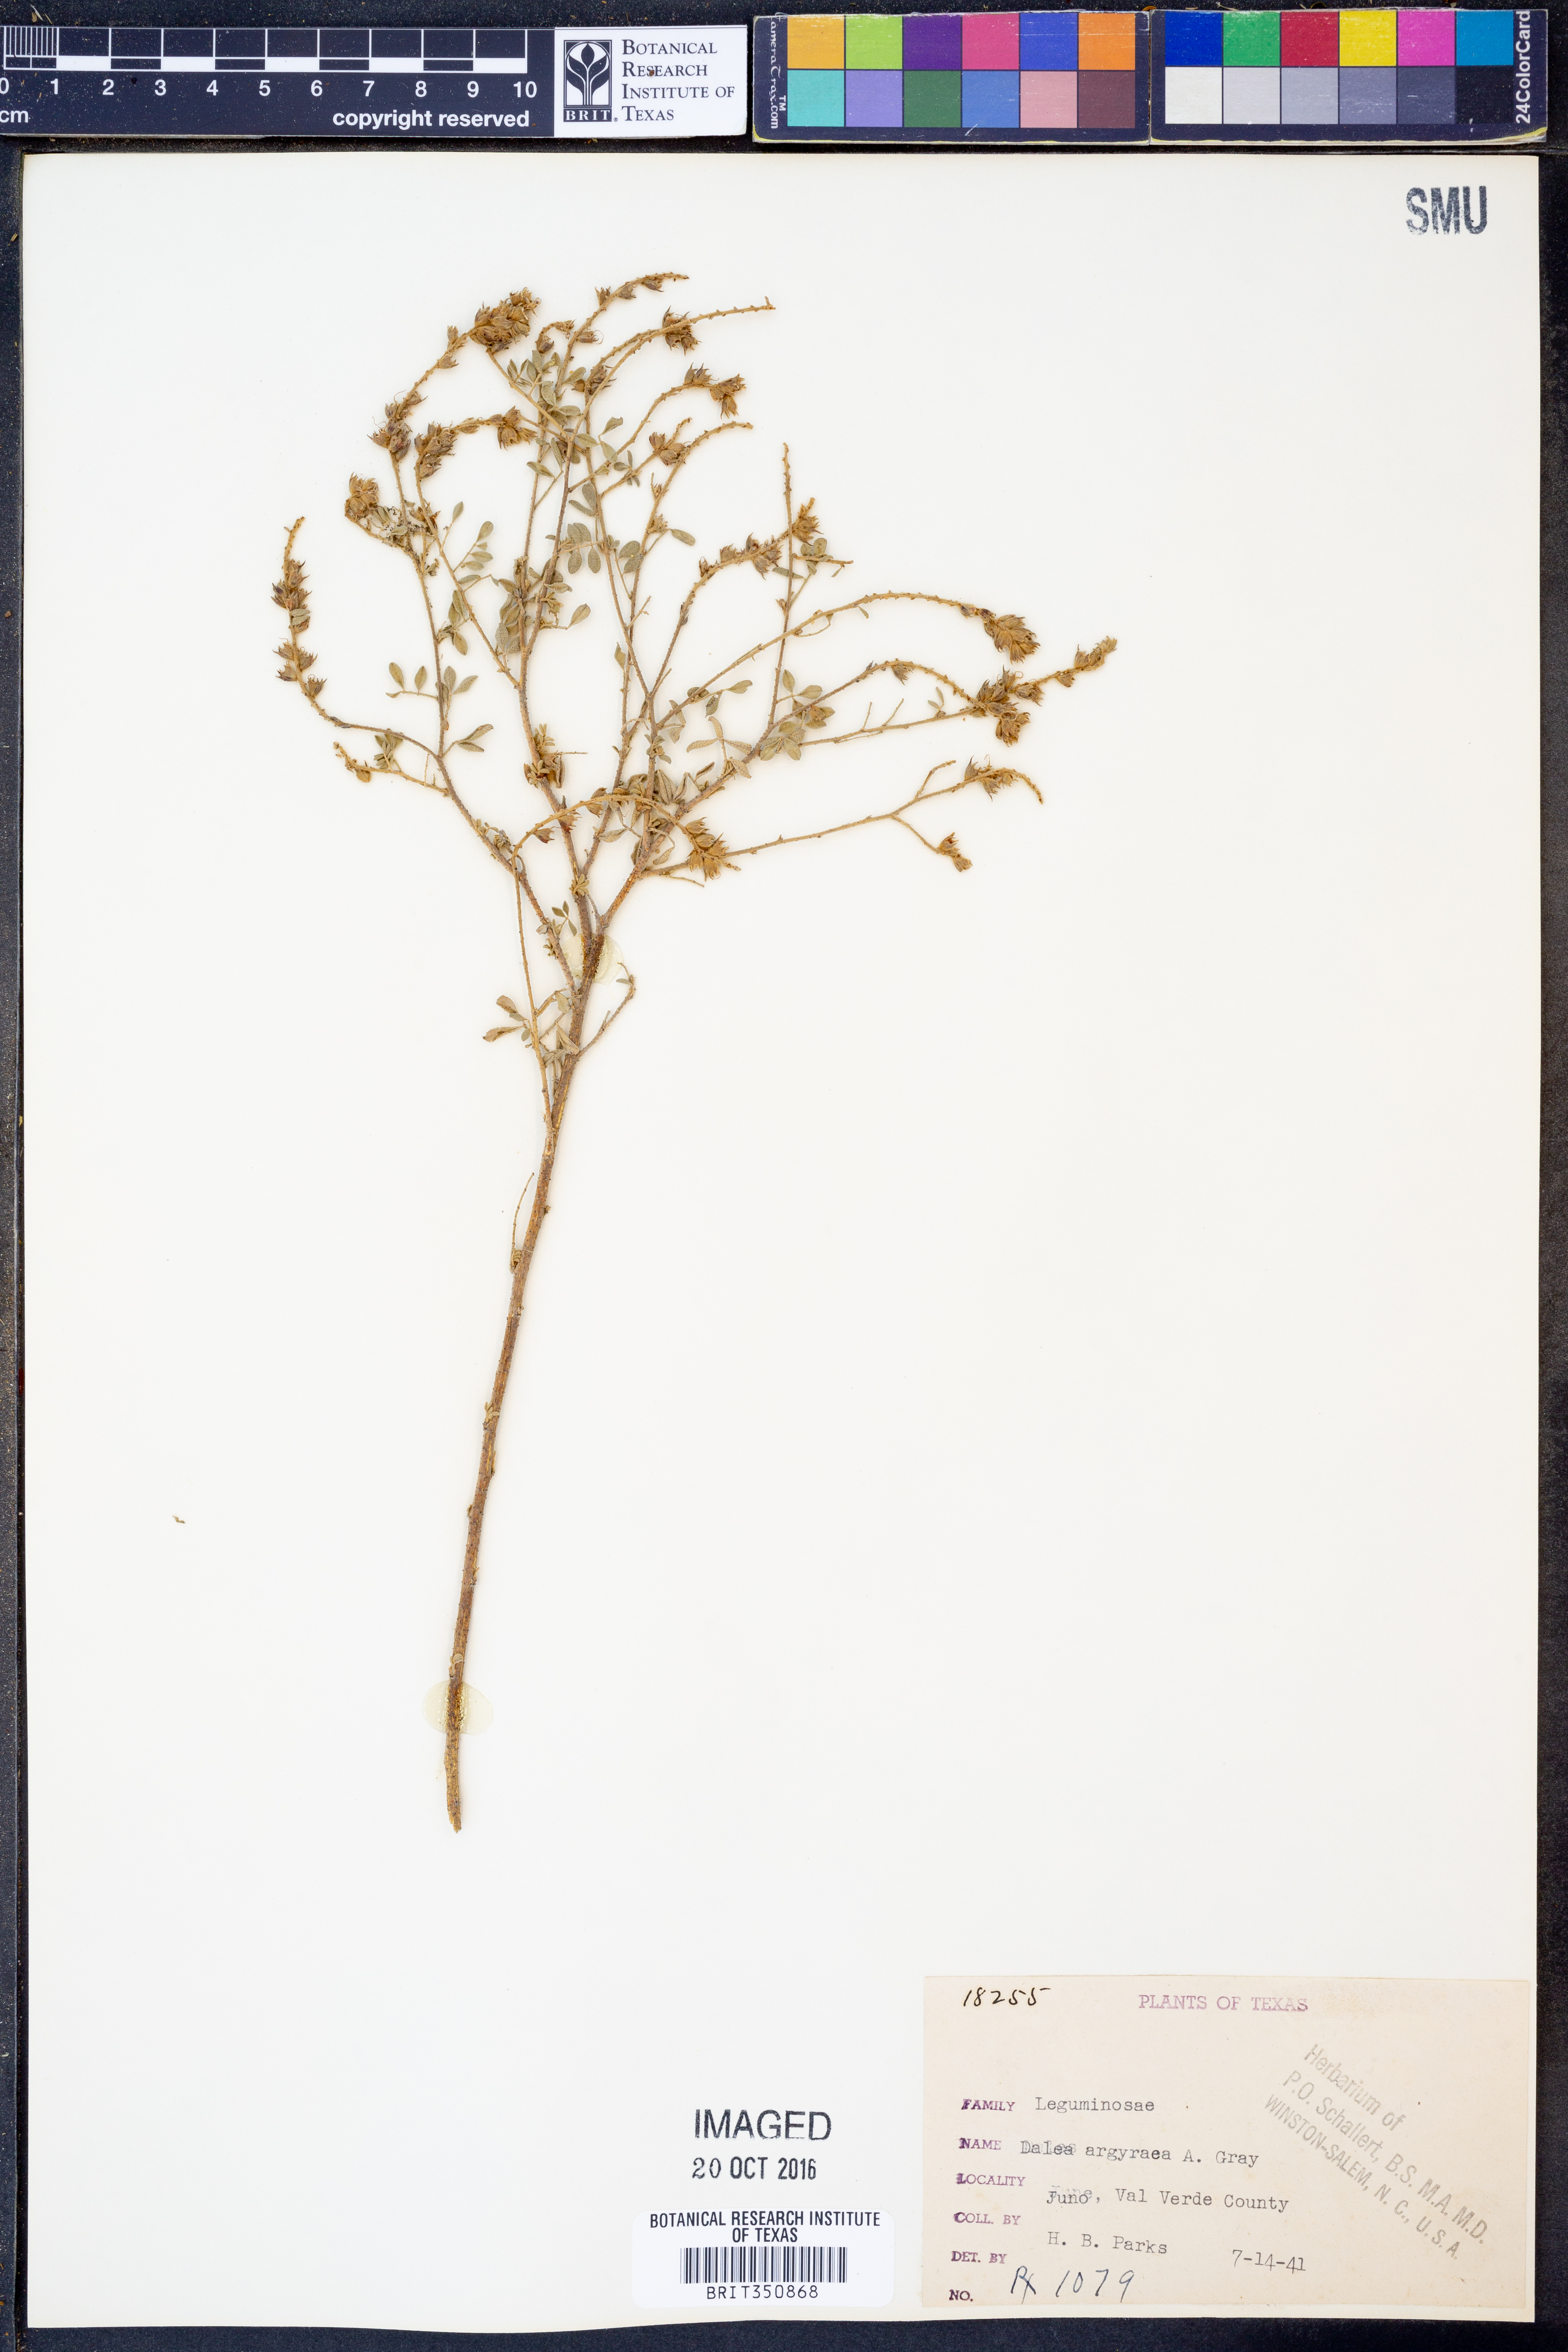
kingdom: Plantae
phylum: Tracheophyta
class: Magnoliopsida
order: Fabales
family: Fabaceae
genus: Dalea
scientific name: Dalea bicolor
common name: Silver prairie-clover
